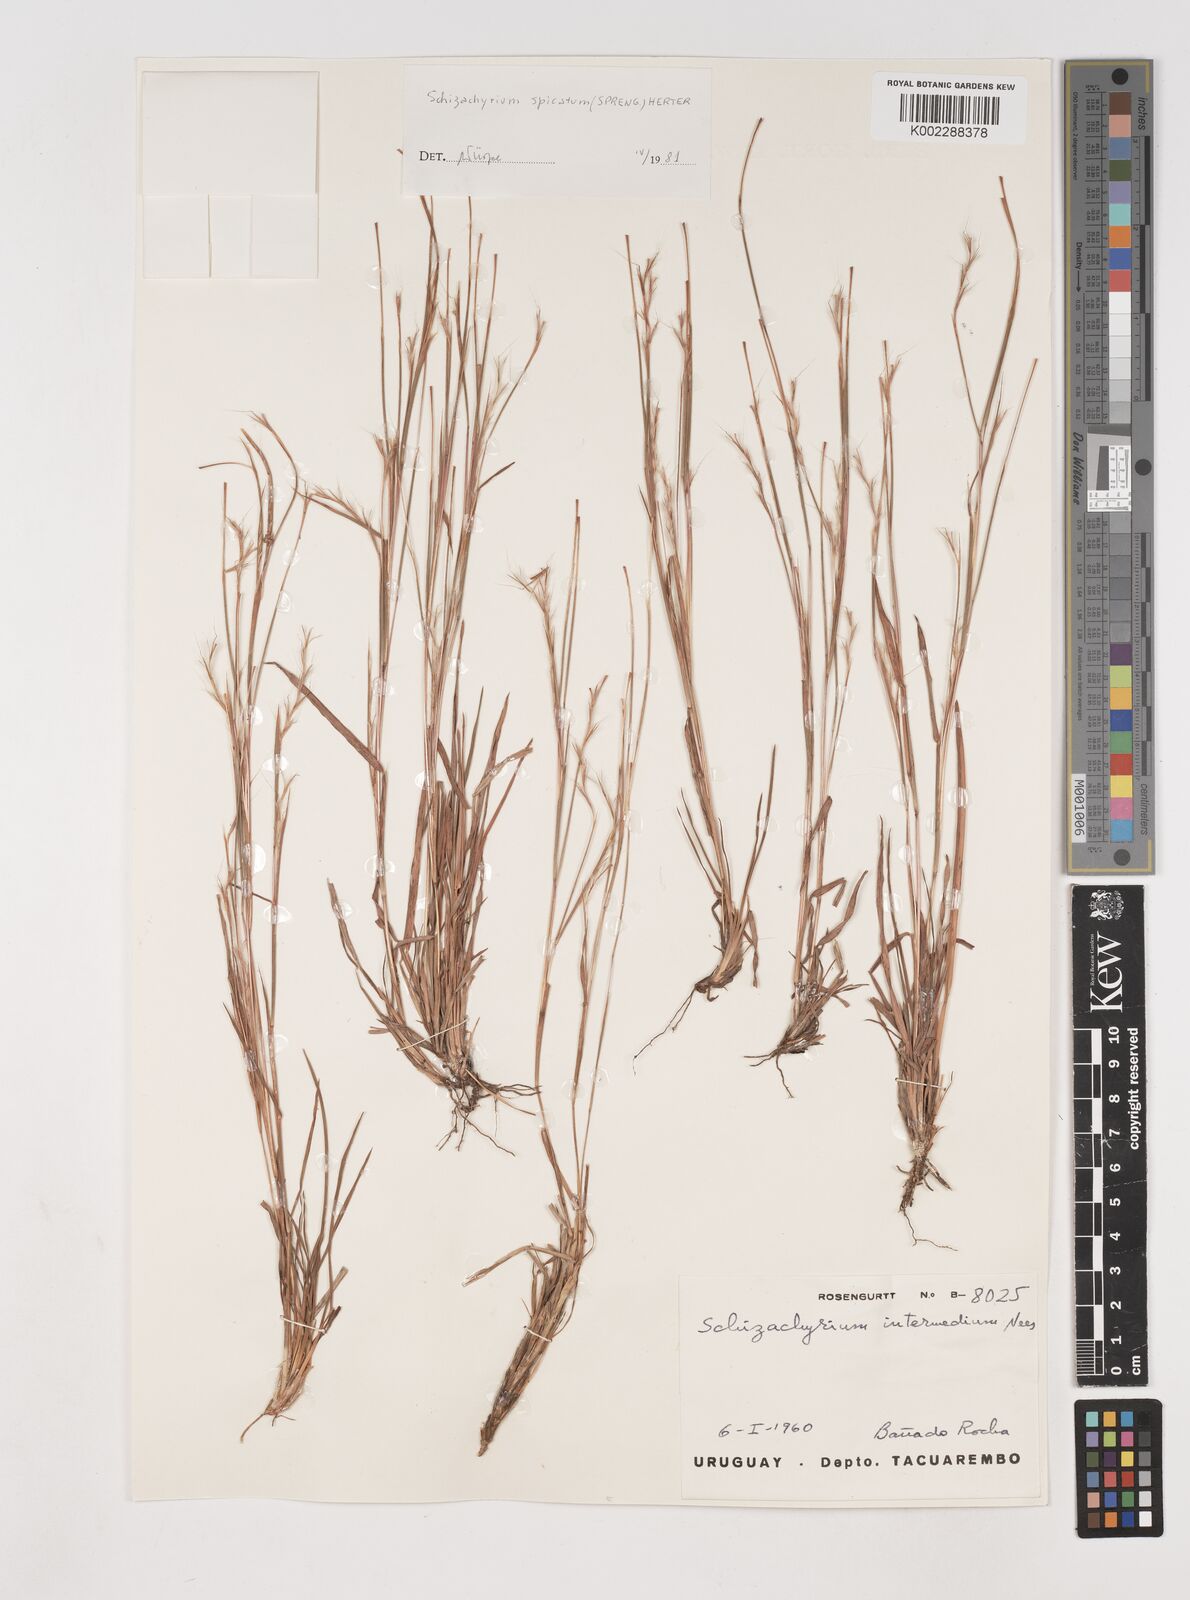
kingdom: Plantae
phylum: Tracheophyta
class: Liliopsida
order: Poales
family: Poaceae
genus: Schizachyrium
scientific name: Schizachyrium spicatum
